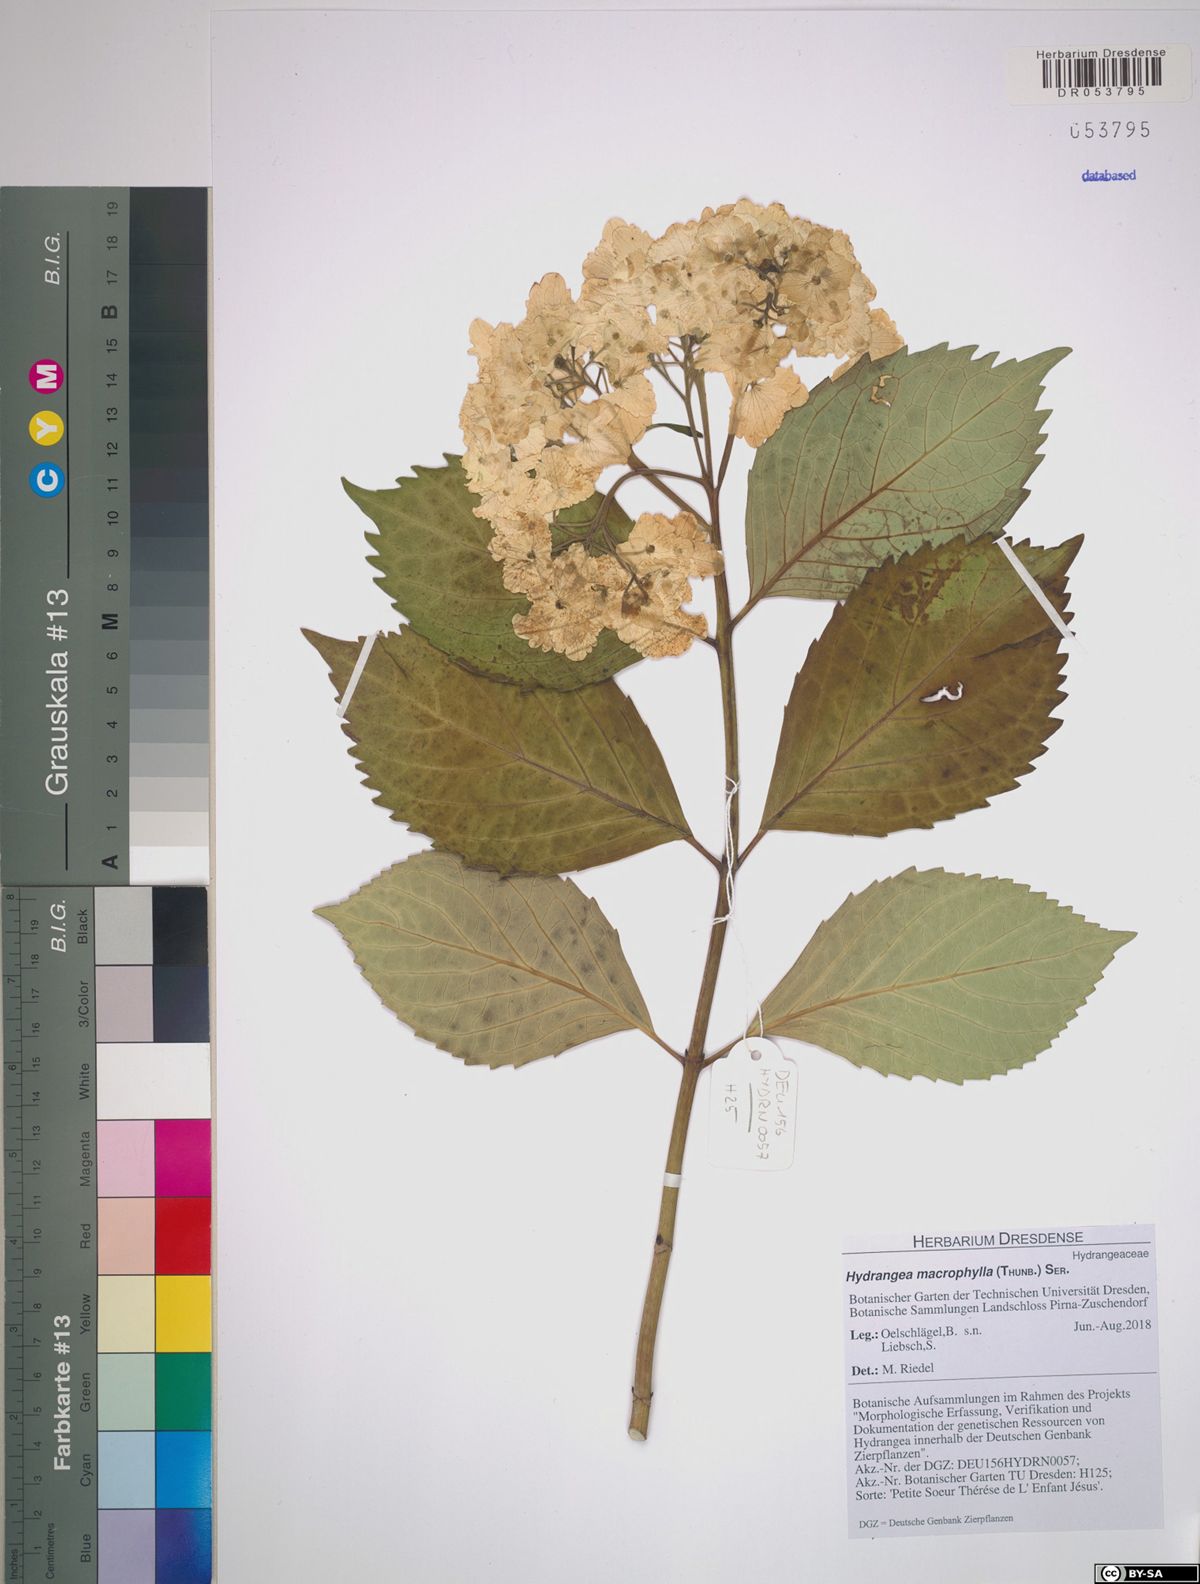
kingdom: Plantae
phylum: Tracheophyta
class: Magnoliopsida
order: Cornales
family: Hydrangeaceae
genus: Hydrangea
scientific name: Hydrangea macrophylla
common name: Hydrangea
